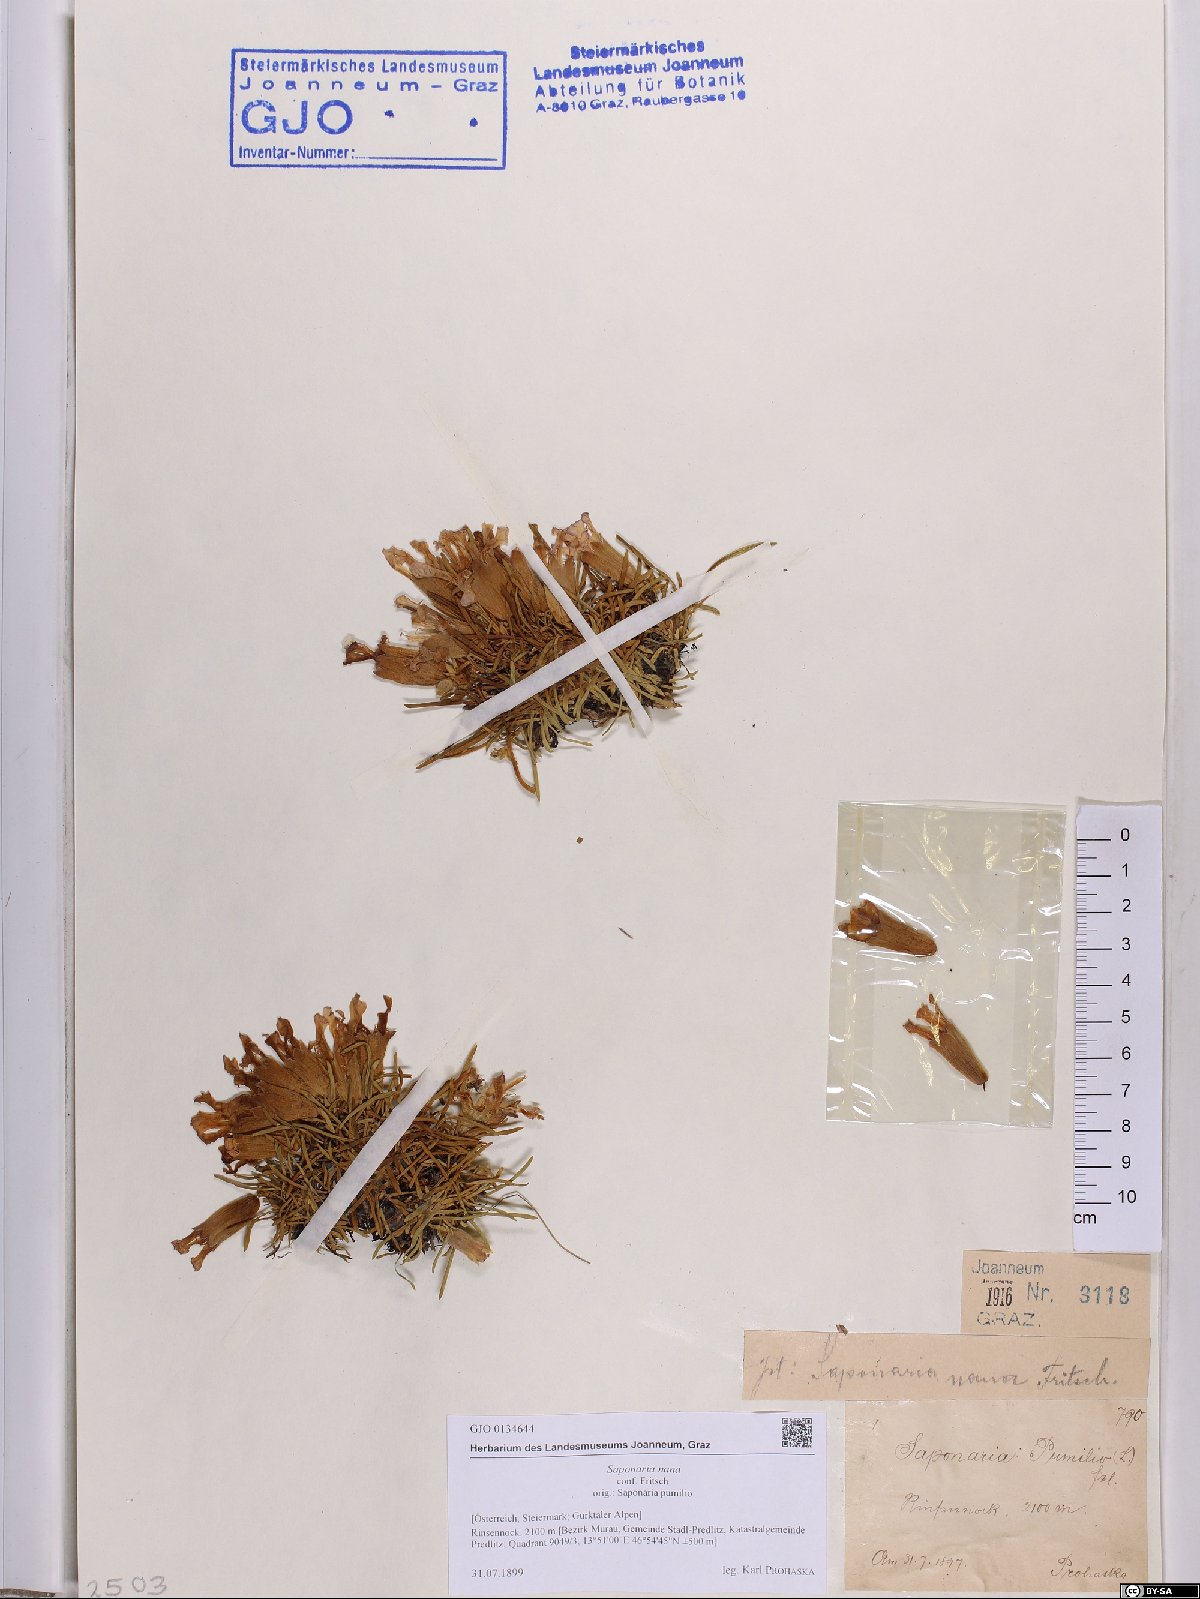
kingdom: Plantae
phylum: Tracheophyta
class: Magnoliopsida
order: Caryophyllales
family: Caryophyllaceae
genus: Saponaria
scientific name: Saponaria pumila
